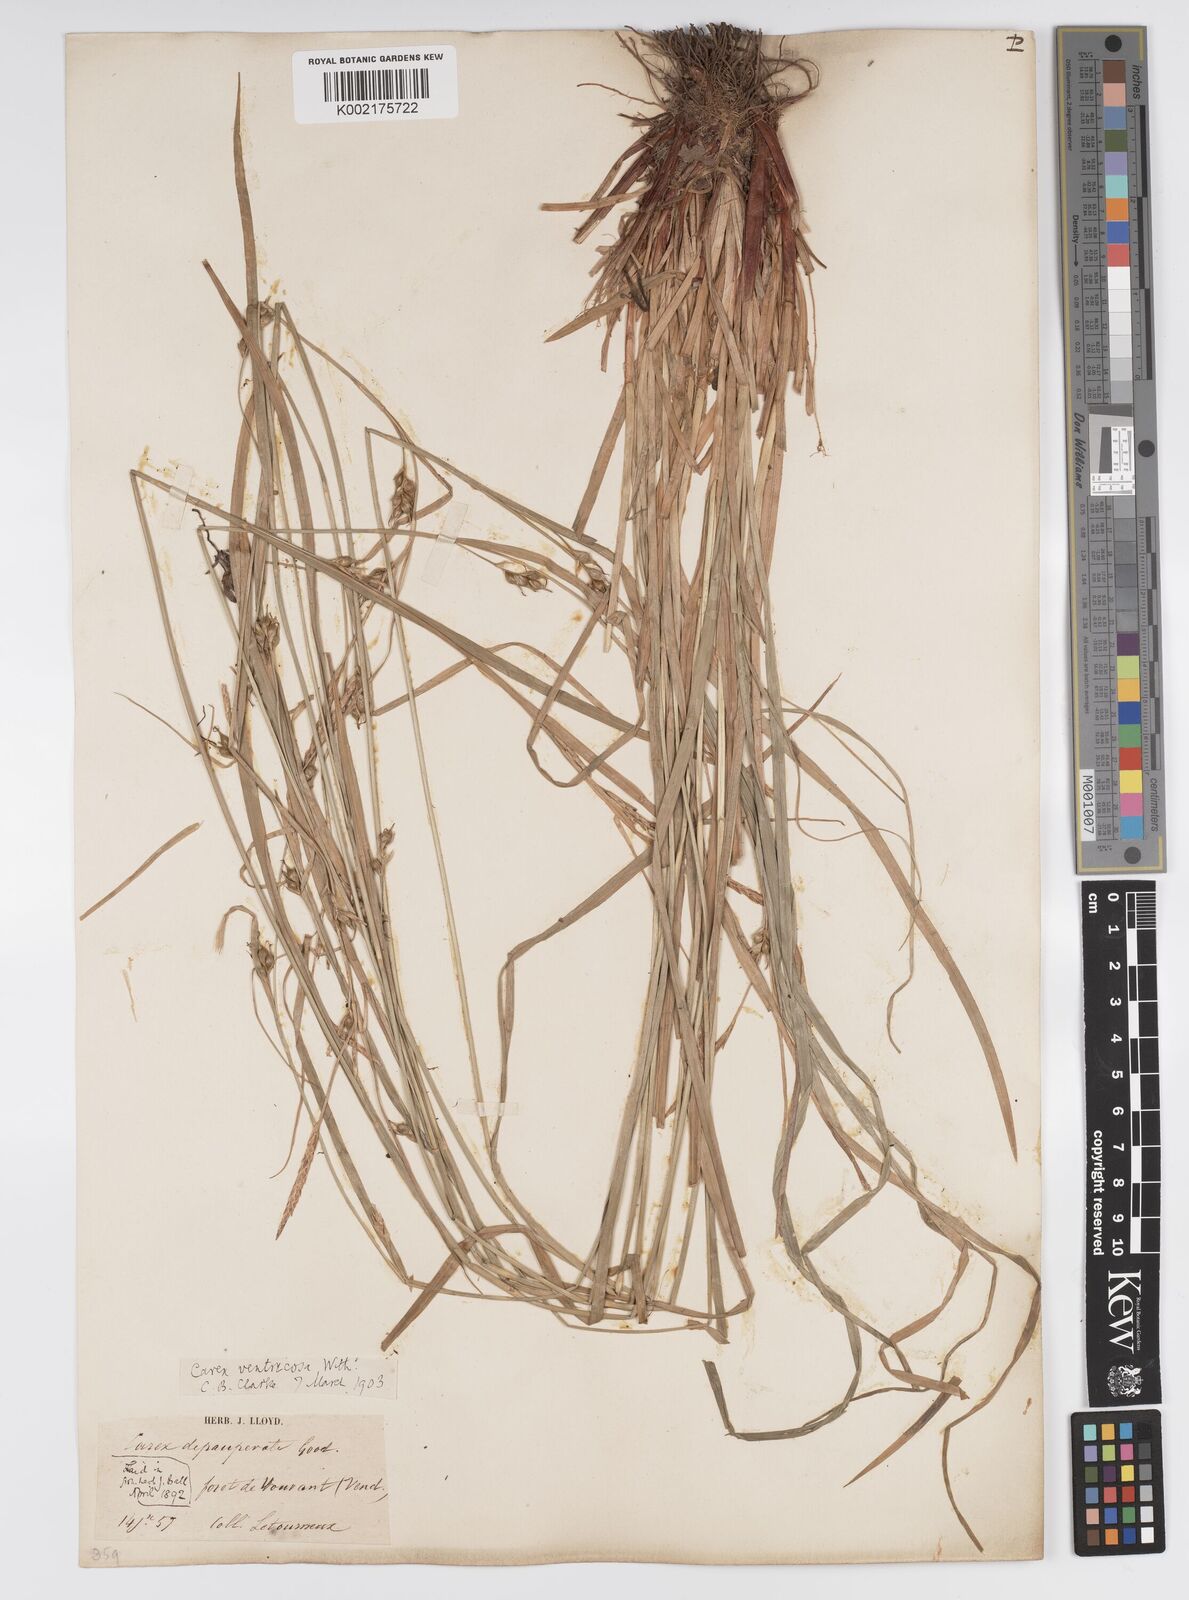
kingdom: Plantae
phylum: Tracheophyta
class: Liliopsida
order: Poales
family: Cyperaceae
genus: Carex
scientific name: Carex
